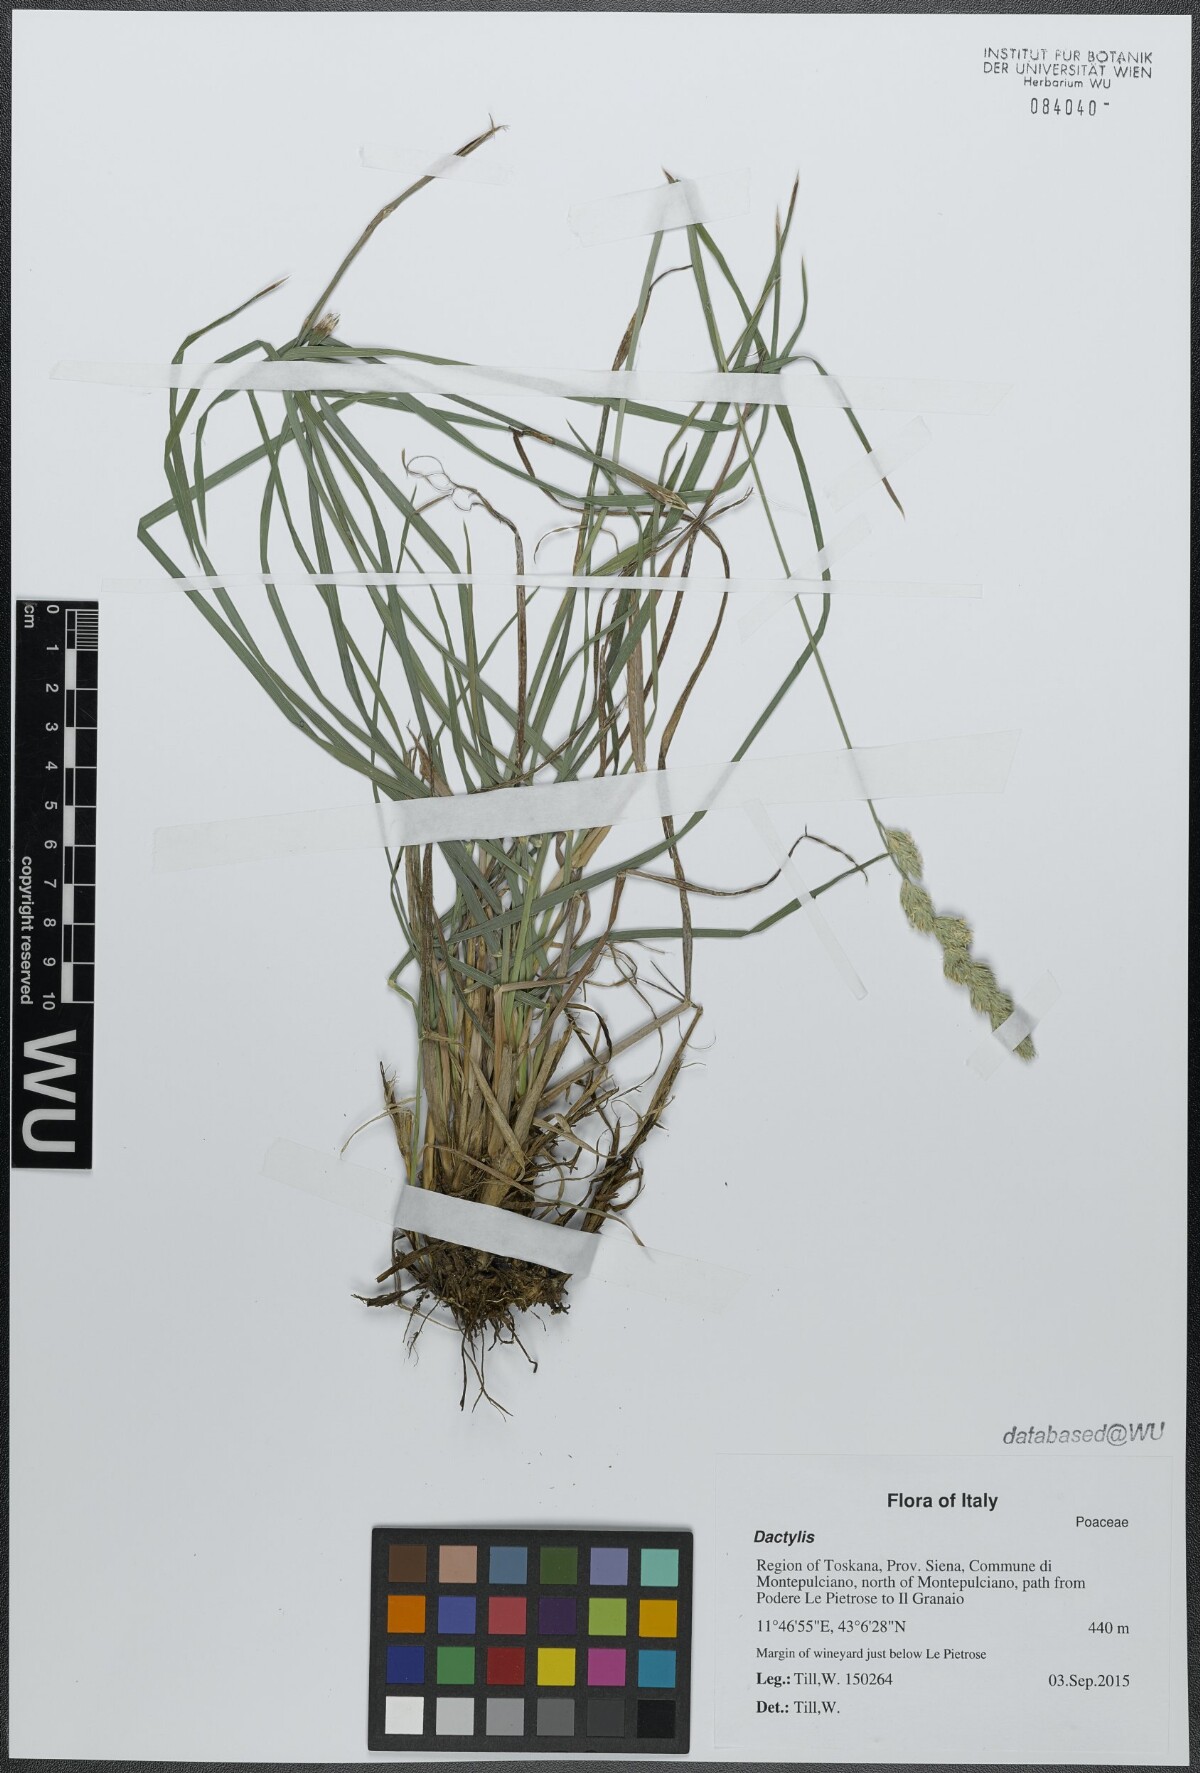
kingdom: Plantae
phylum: Tracheophyta
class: Liliopsida
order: Poales
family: Poaceae
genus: Dactylis
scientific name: Dactylis
